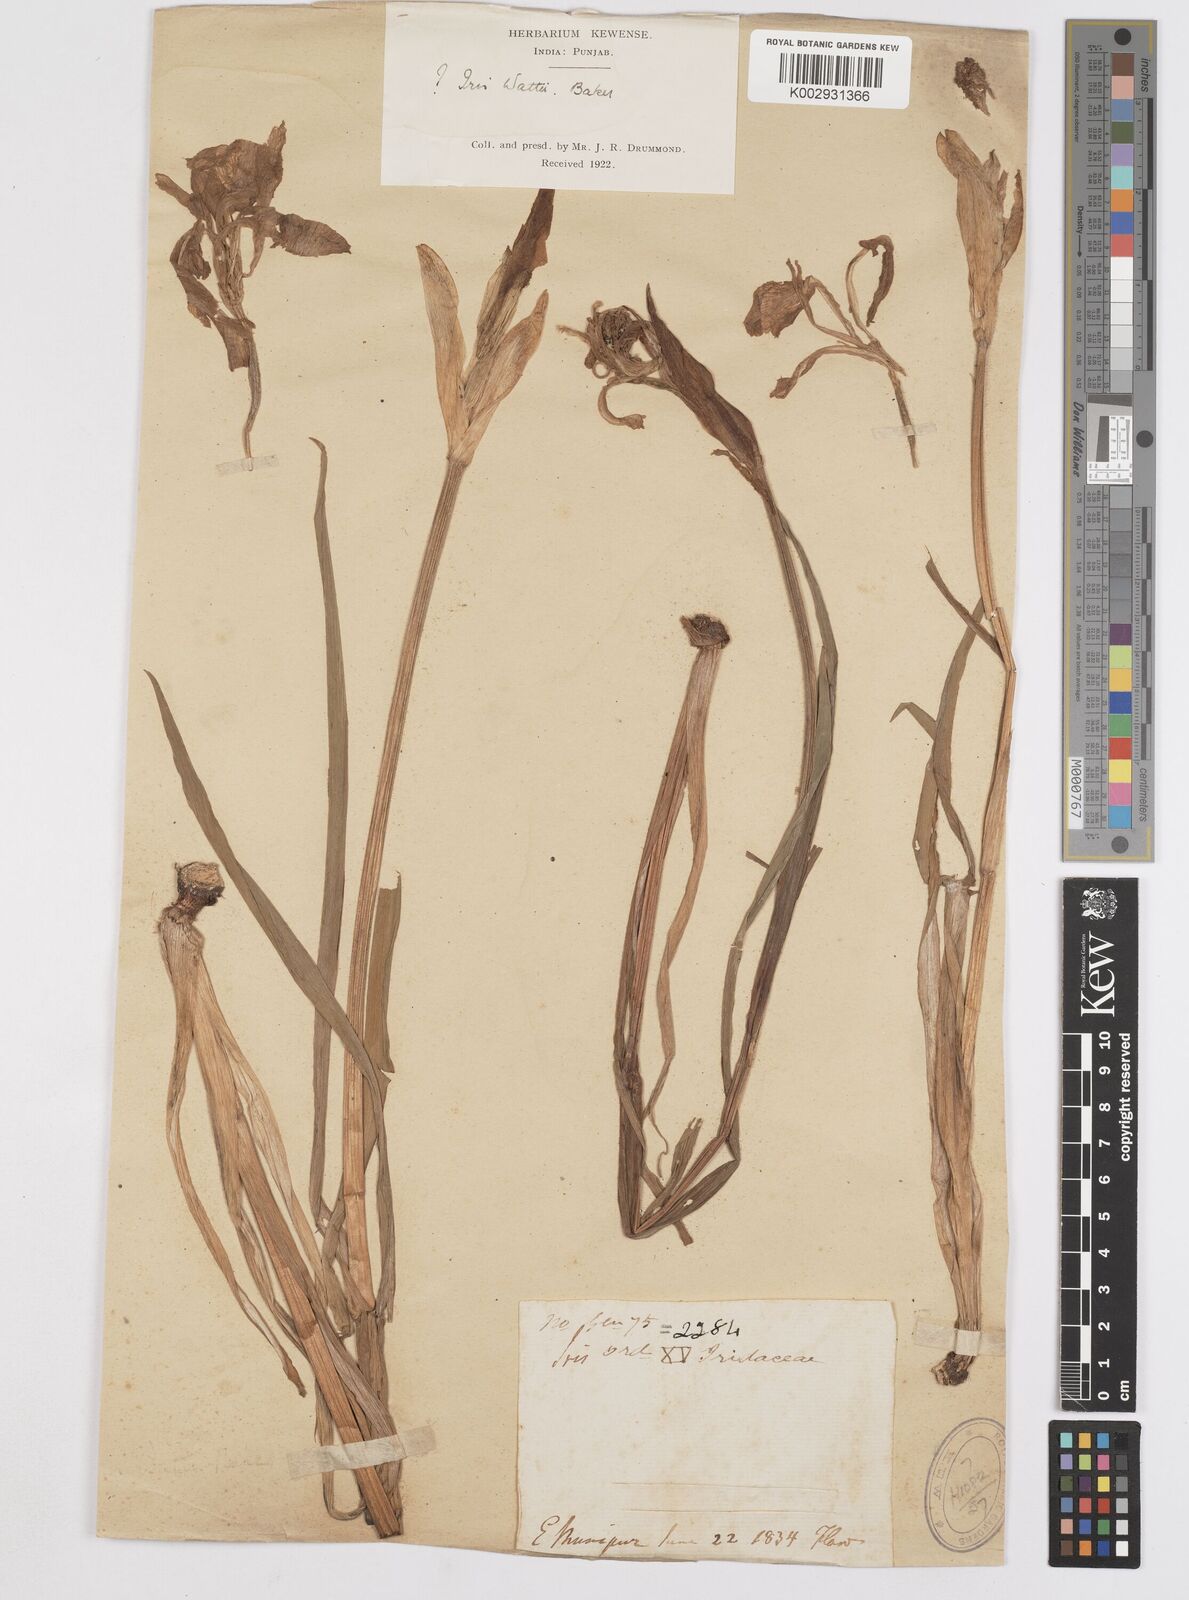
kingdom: Plantae
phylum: Tracheophyta
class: Liliopsida
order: Asparagales
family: Iridaceae
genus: Iris
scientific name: Iris halophila
